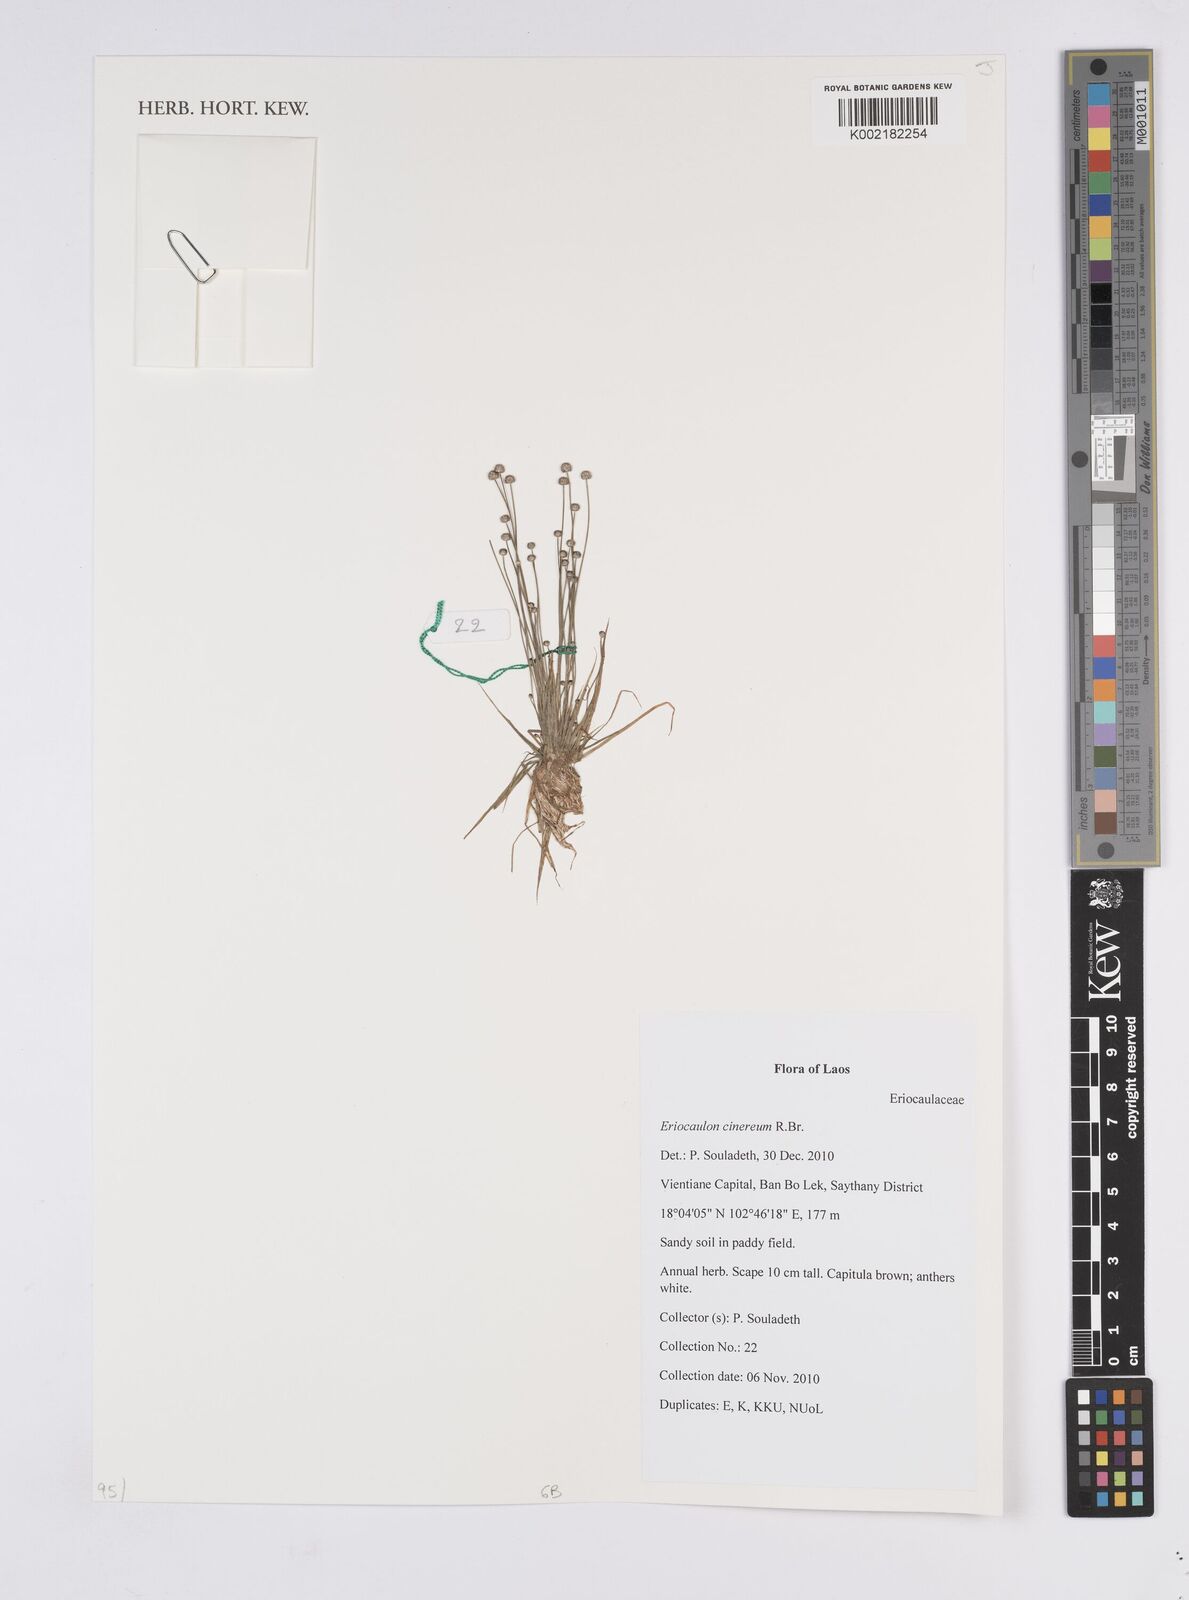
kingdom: Plantae
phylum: Tracheophyta
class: Liliopsida
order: Poales
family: Eriocaulaceae
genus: Eriocaulon
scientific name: Eriocaulon cinereum
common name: Ashy pipewort
